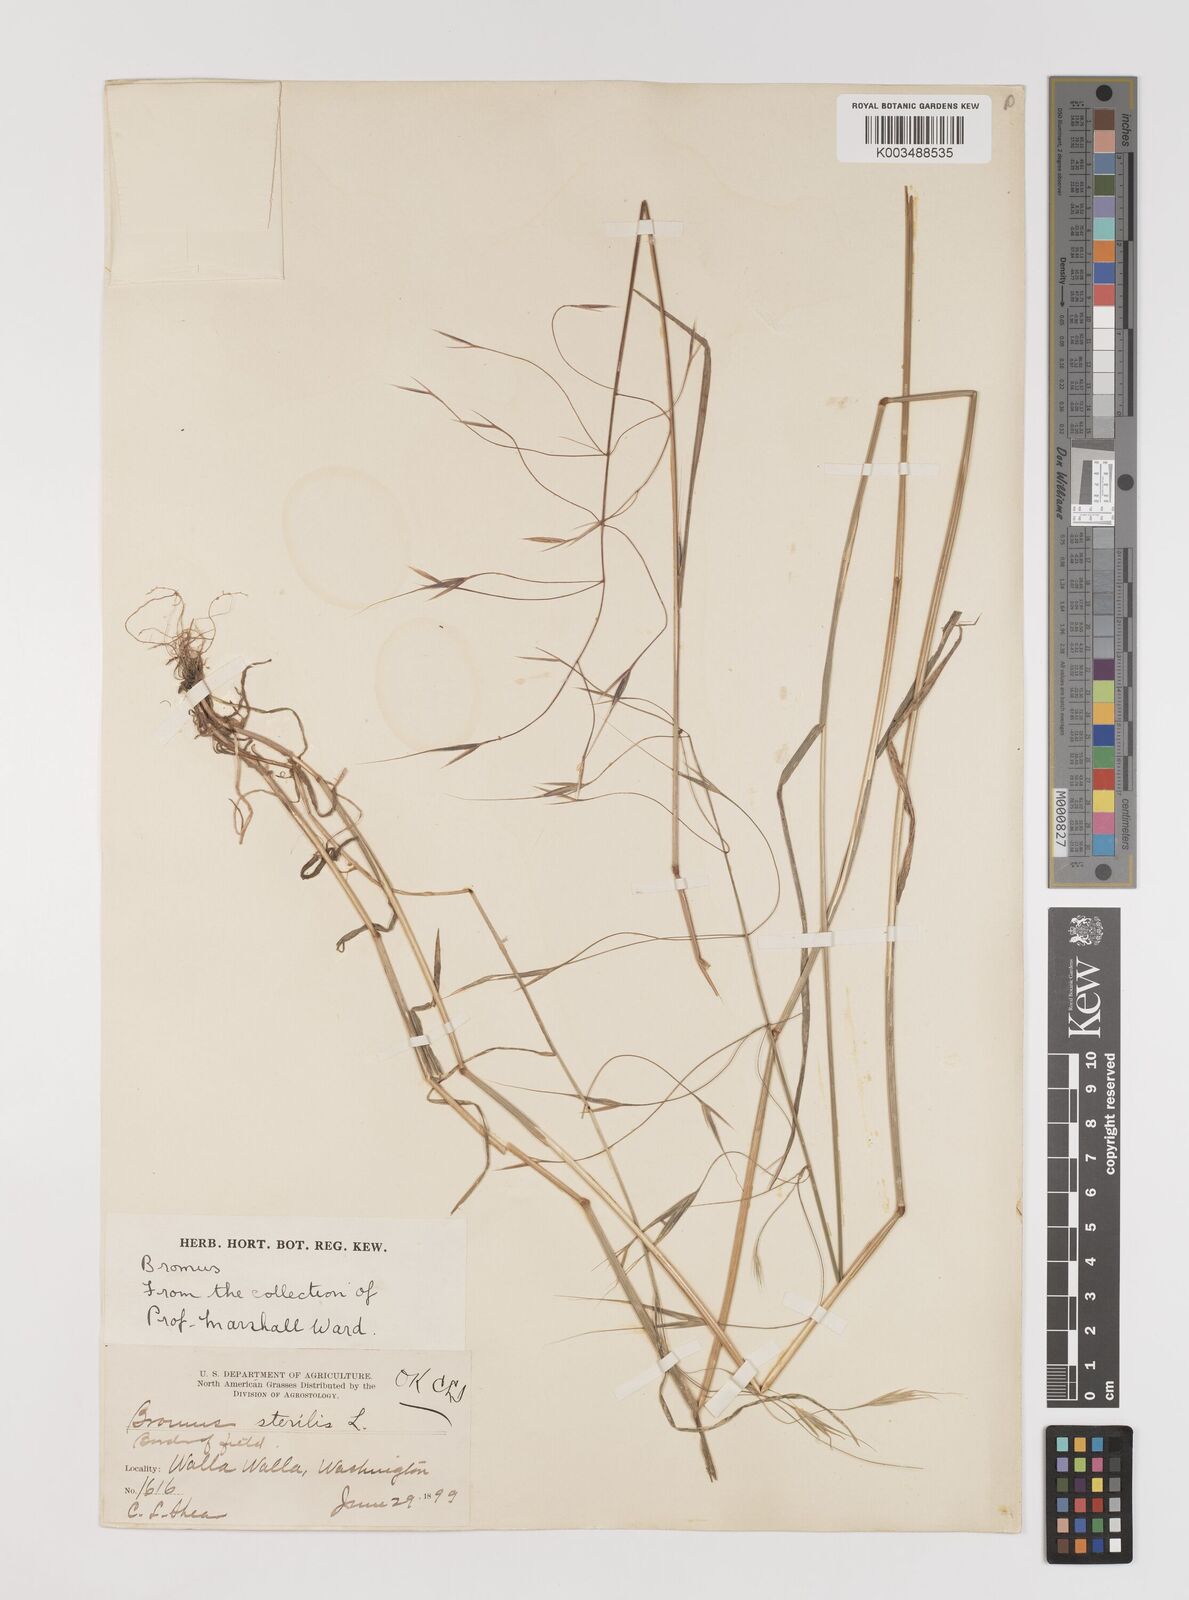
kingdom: Plantae
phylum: Tracheophyta
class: Liliopsida
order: Poales
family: Poaceae
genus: Bromus
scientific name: Bromus sterilis
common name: Poverty brome
